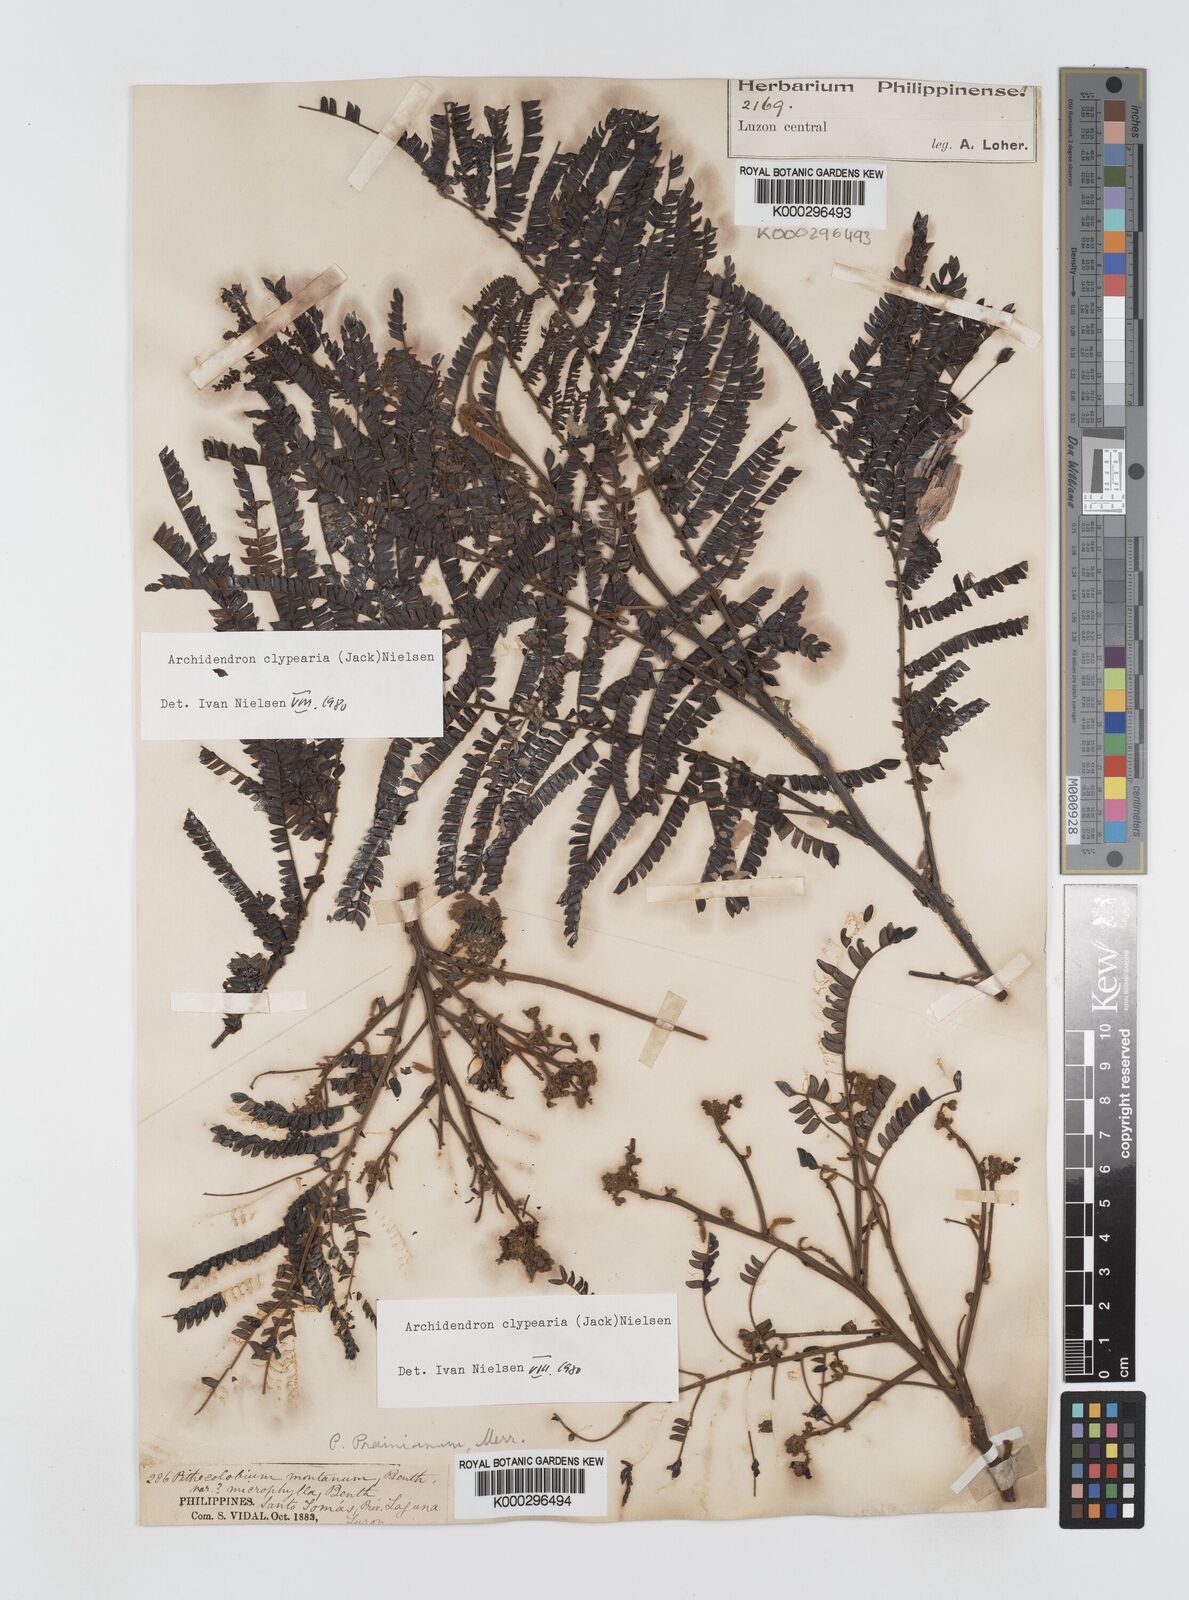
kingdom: Plantae
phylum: Tracheophyta
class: Magnoliopsida
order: Fabales
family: Fabaceae
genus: Archidendron
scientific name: Archidendron clypearia
